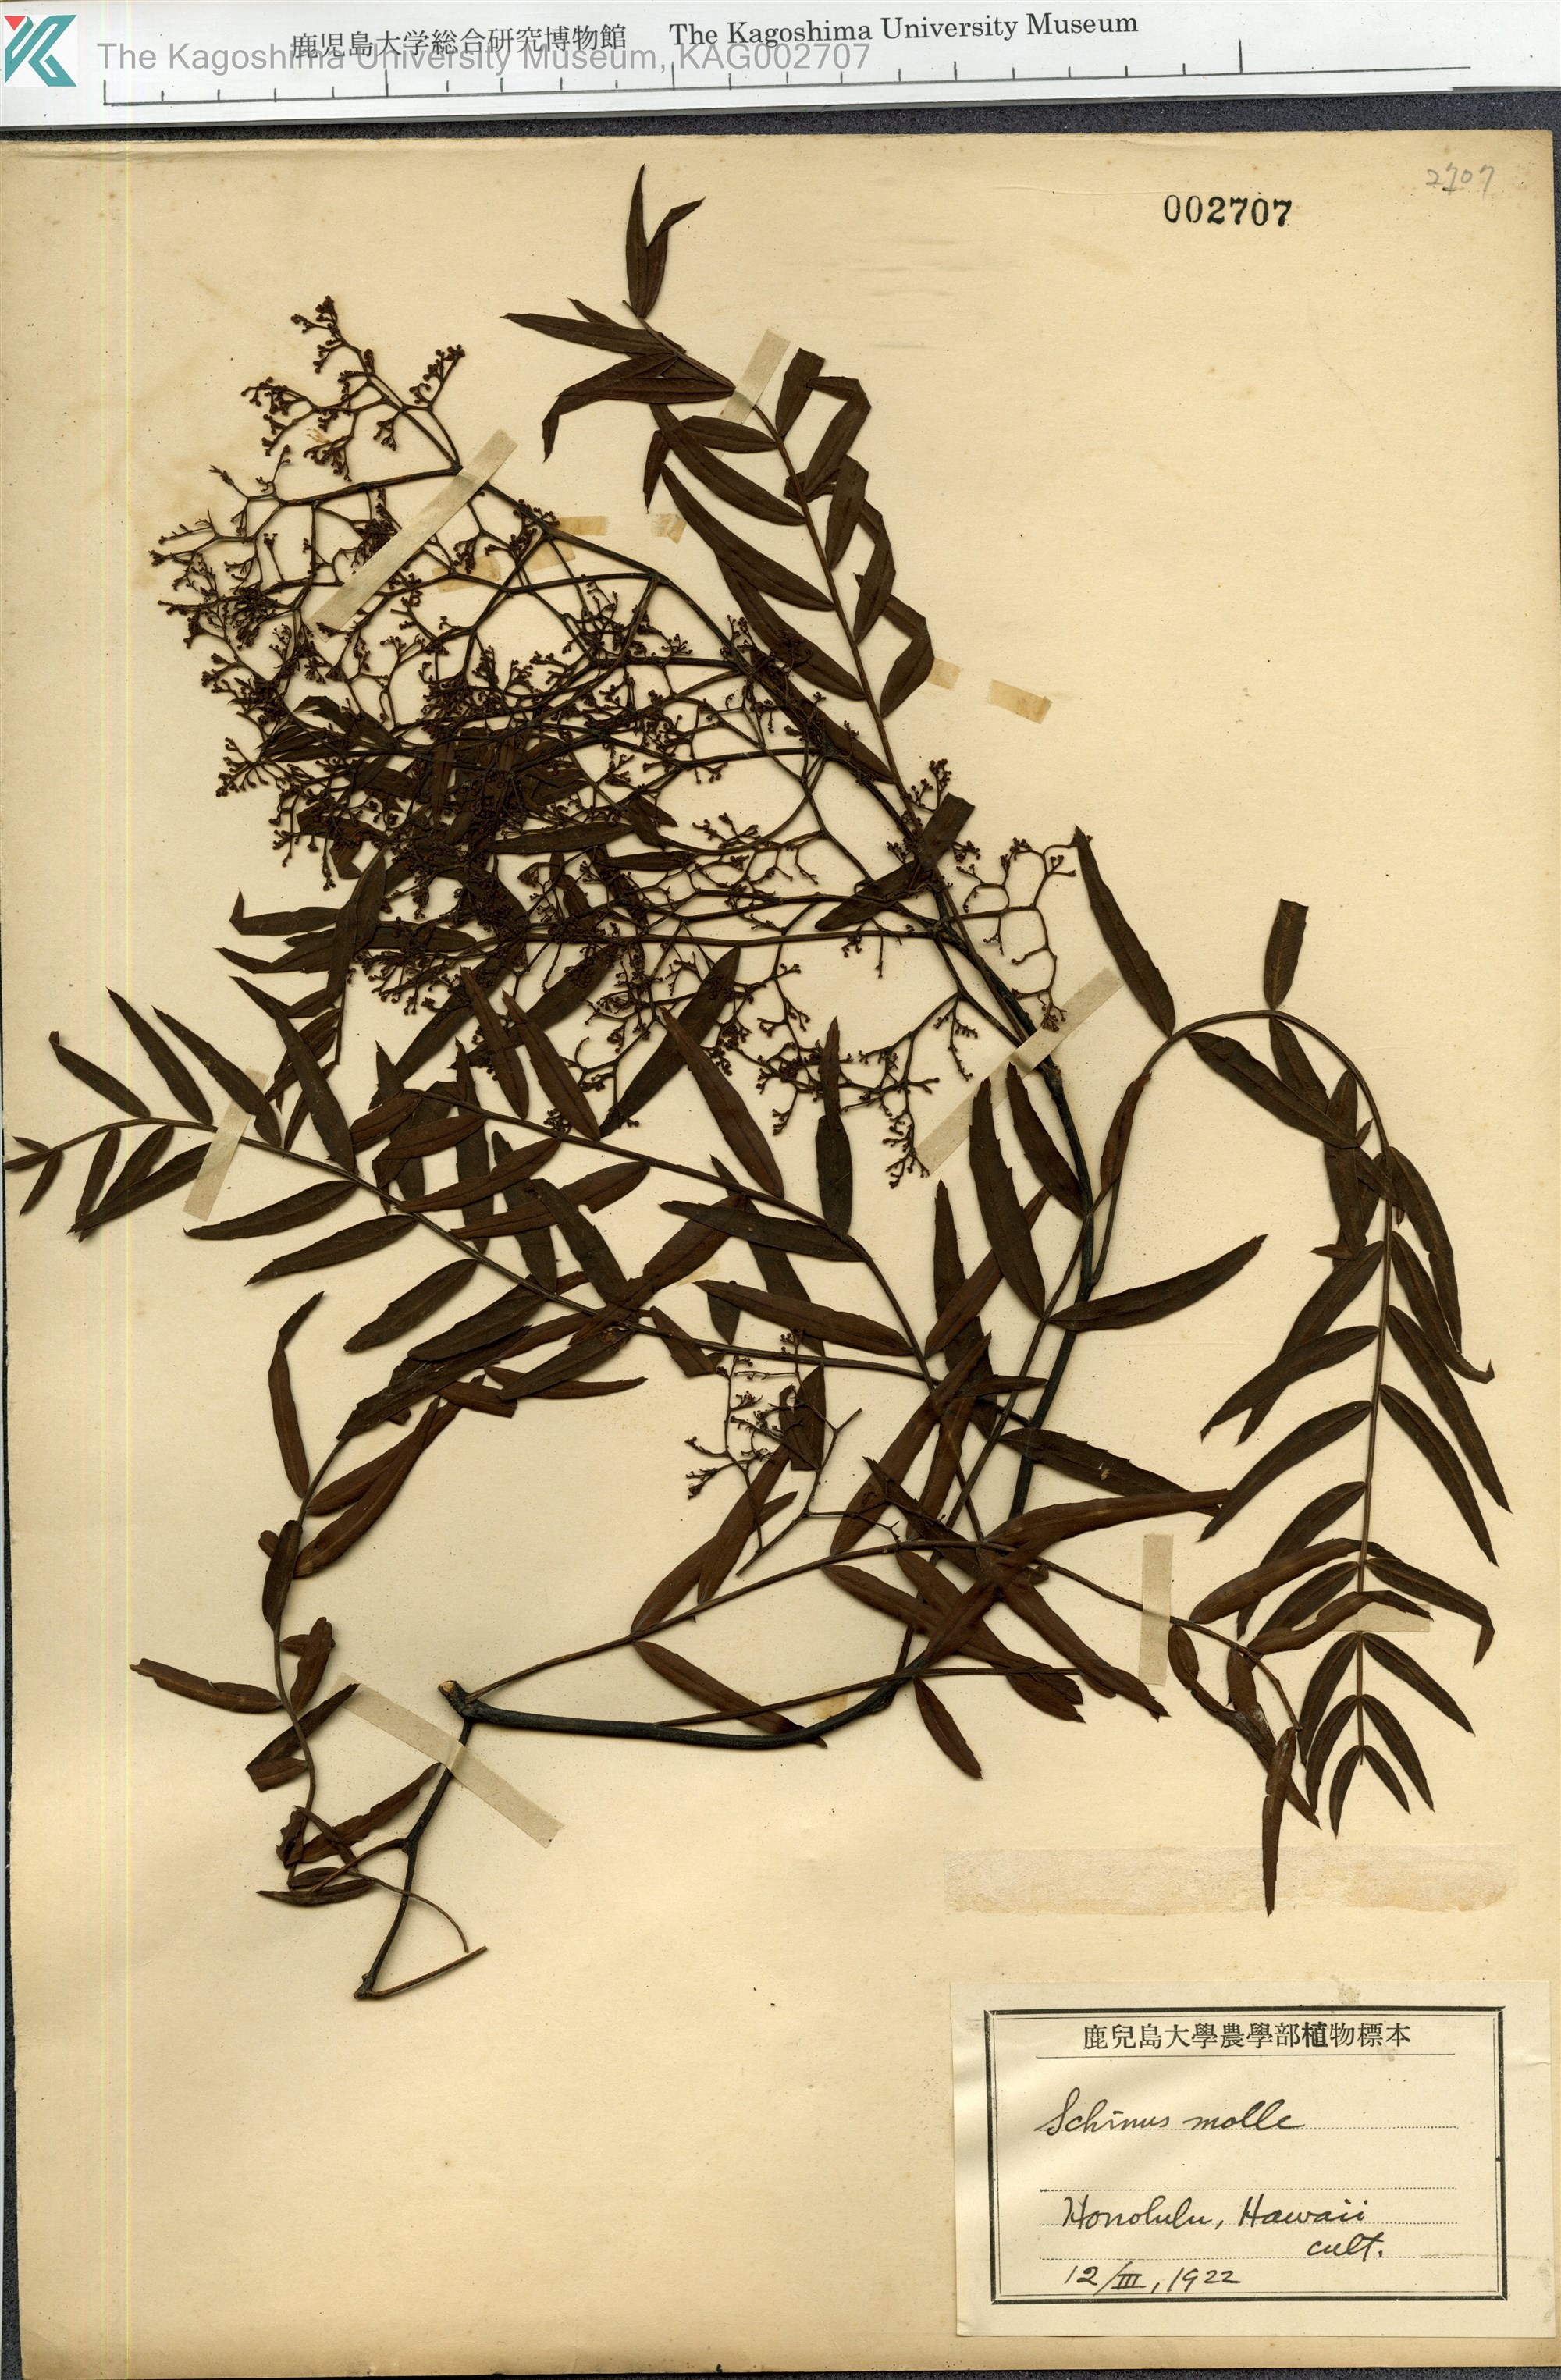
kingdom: Plantae
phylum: Tracheophyta
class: Magnoliopsida
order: Sapindales
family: Anacardiaceae
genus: Schinus
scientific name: Schinus molle
